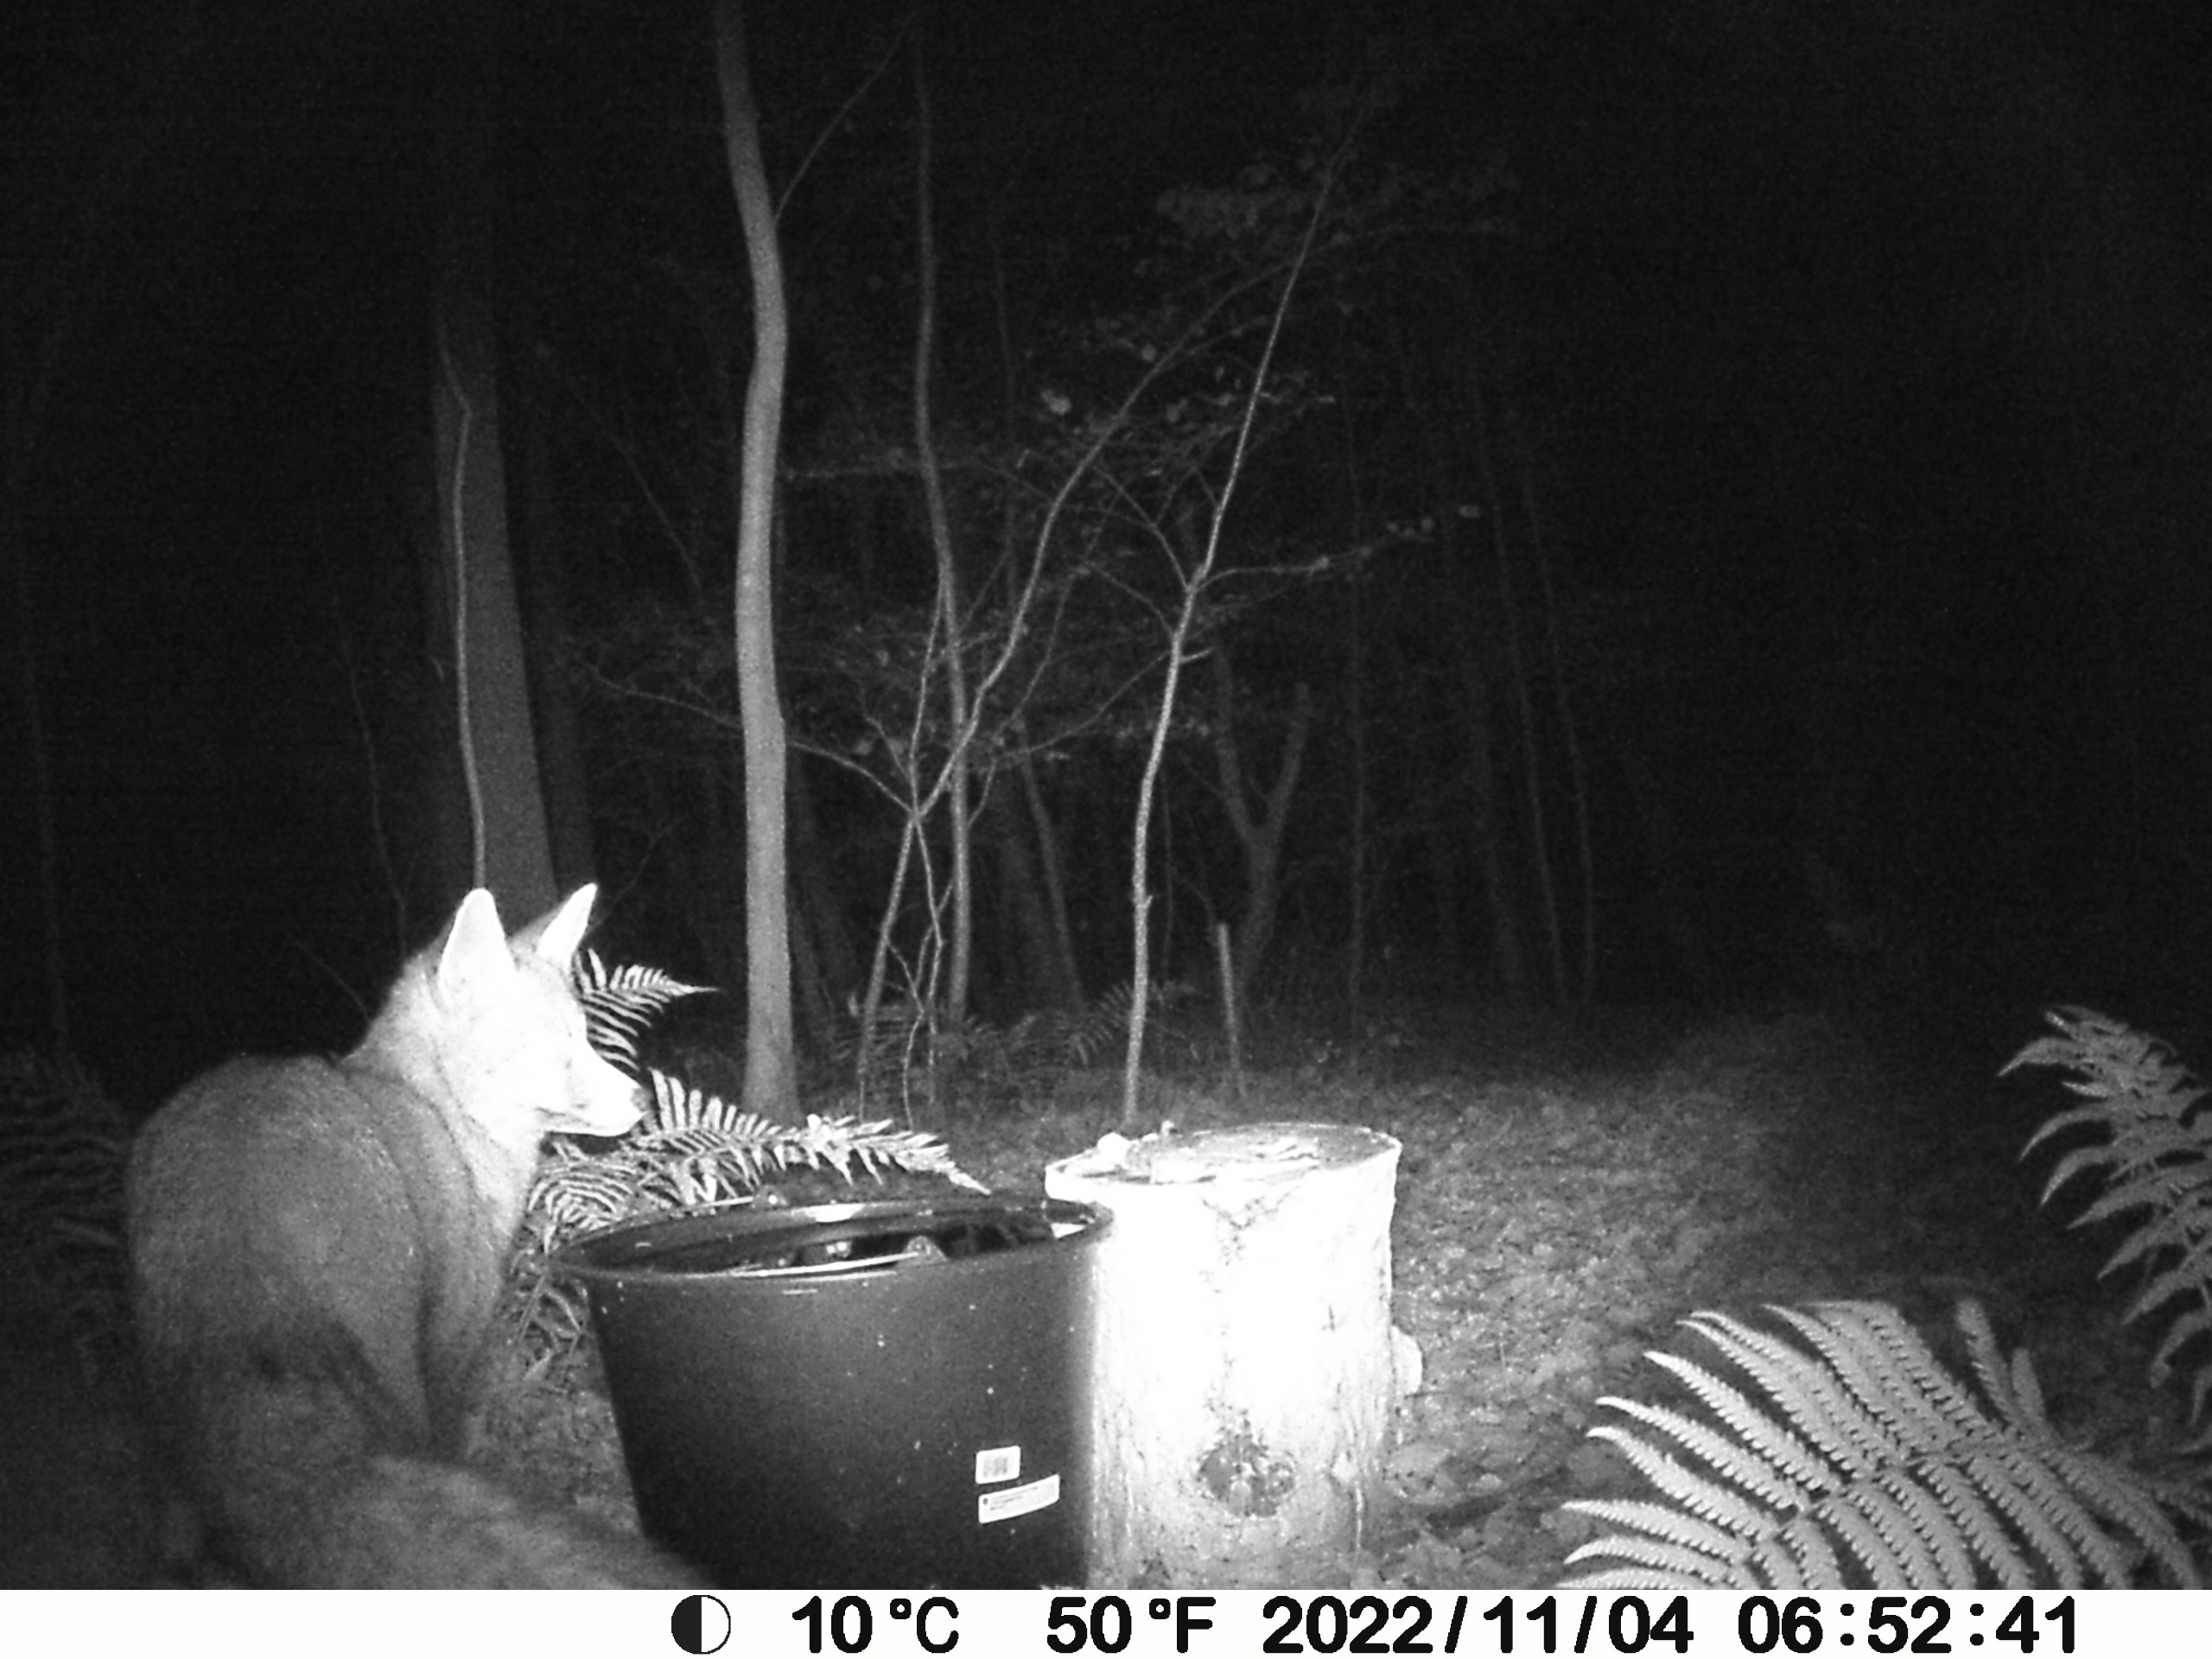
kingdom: Animalia
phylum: Chordata
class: Mammalia
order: Carnivora
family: Canidae
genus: Vulpes
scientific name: Vulpes vulpes
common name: Ræv
